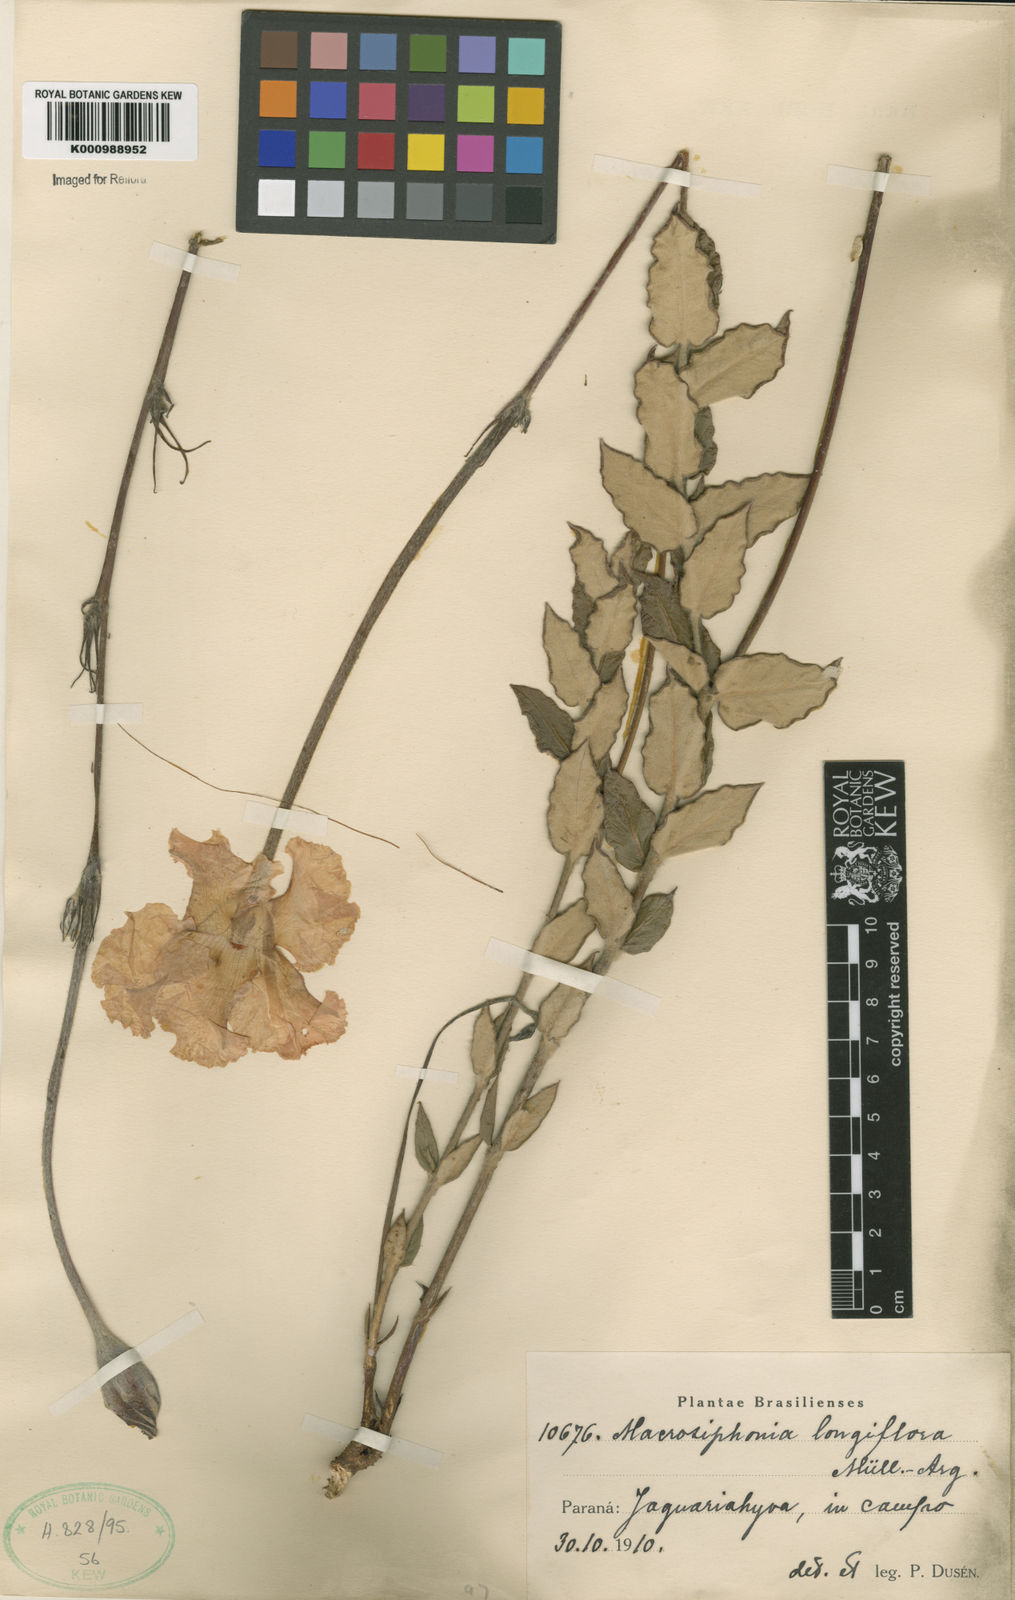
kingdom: Plantae
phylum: Tracheophyta
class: Magnoliopsida
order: Gentianales
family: Apocynaceae
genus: Mandevilla
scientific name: Mandevilla longiflora
